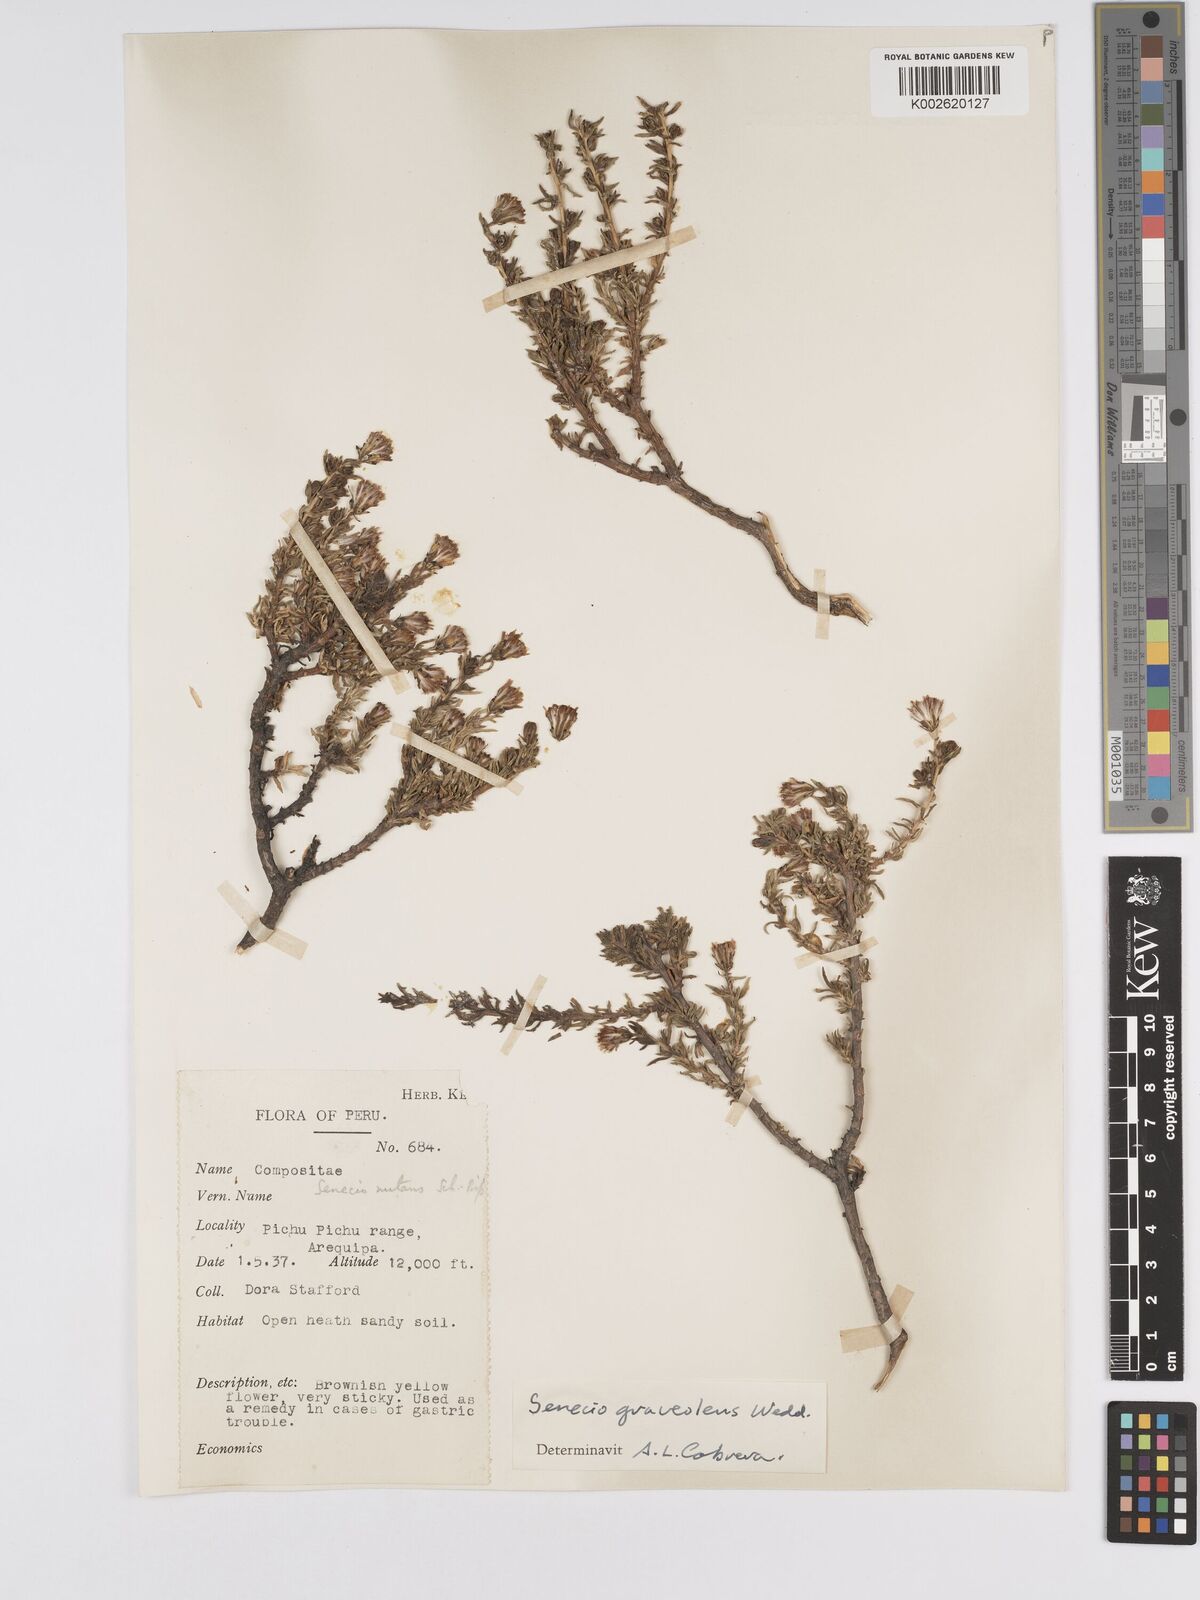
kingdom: Plantae
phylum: Tracheophyta
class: Magnoliopsida
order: Asterales
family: Asteraceae
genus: Senecio
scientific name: Senecio nutans
